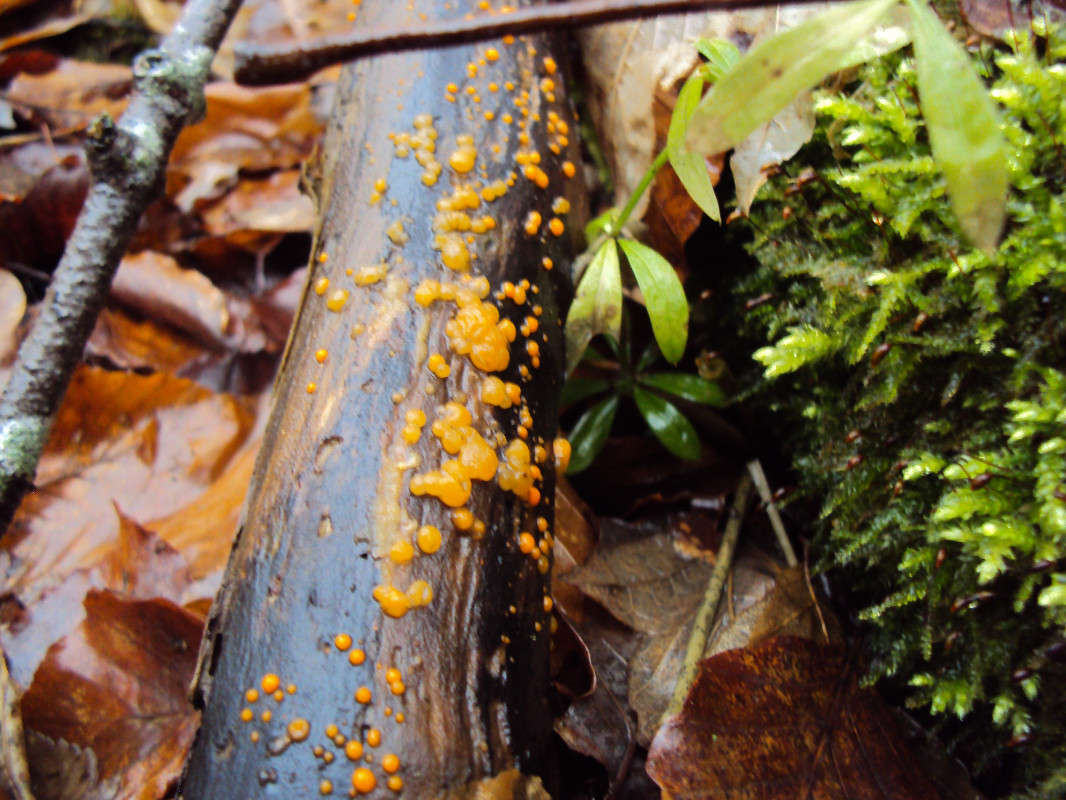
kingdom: Fungi
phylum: Basidiomycota
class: Dacrymycetes
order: Dacrymycetales
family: Dacrymycetaceae
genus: Dacrymyces
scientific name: Dacrymyces stillatus
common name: almindelig tåresvamp
